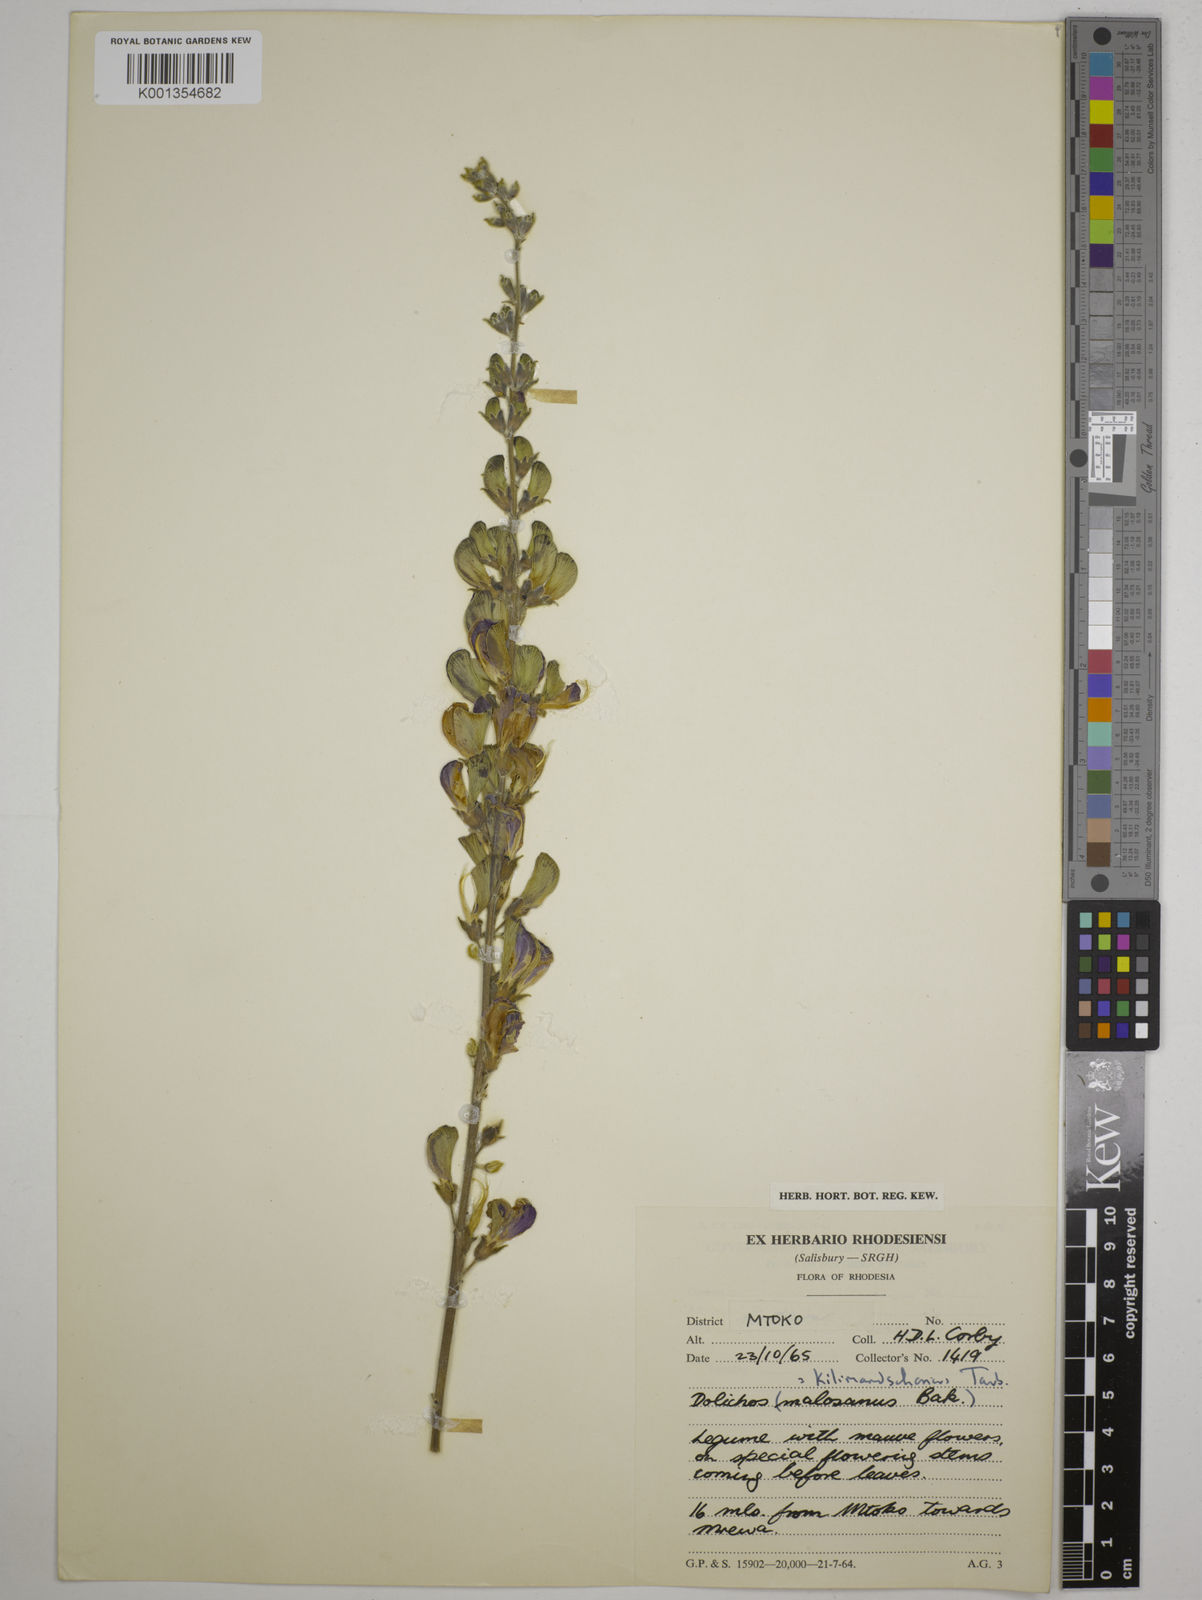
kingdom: Plantae
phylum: Tracheophyta
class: Magnoliopsida
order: Fabales
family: Fabaceae
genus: Dolichos
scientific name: Dolichos kilimandscharicus
